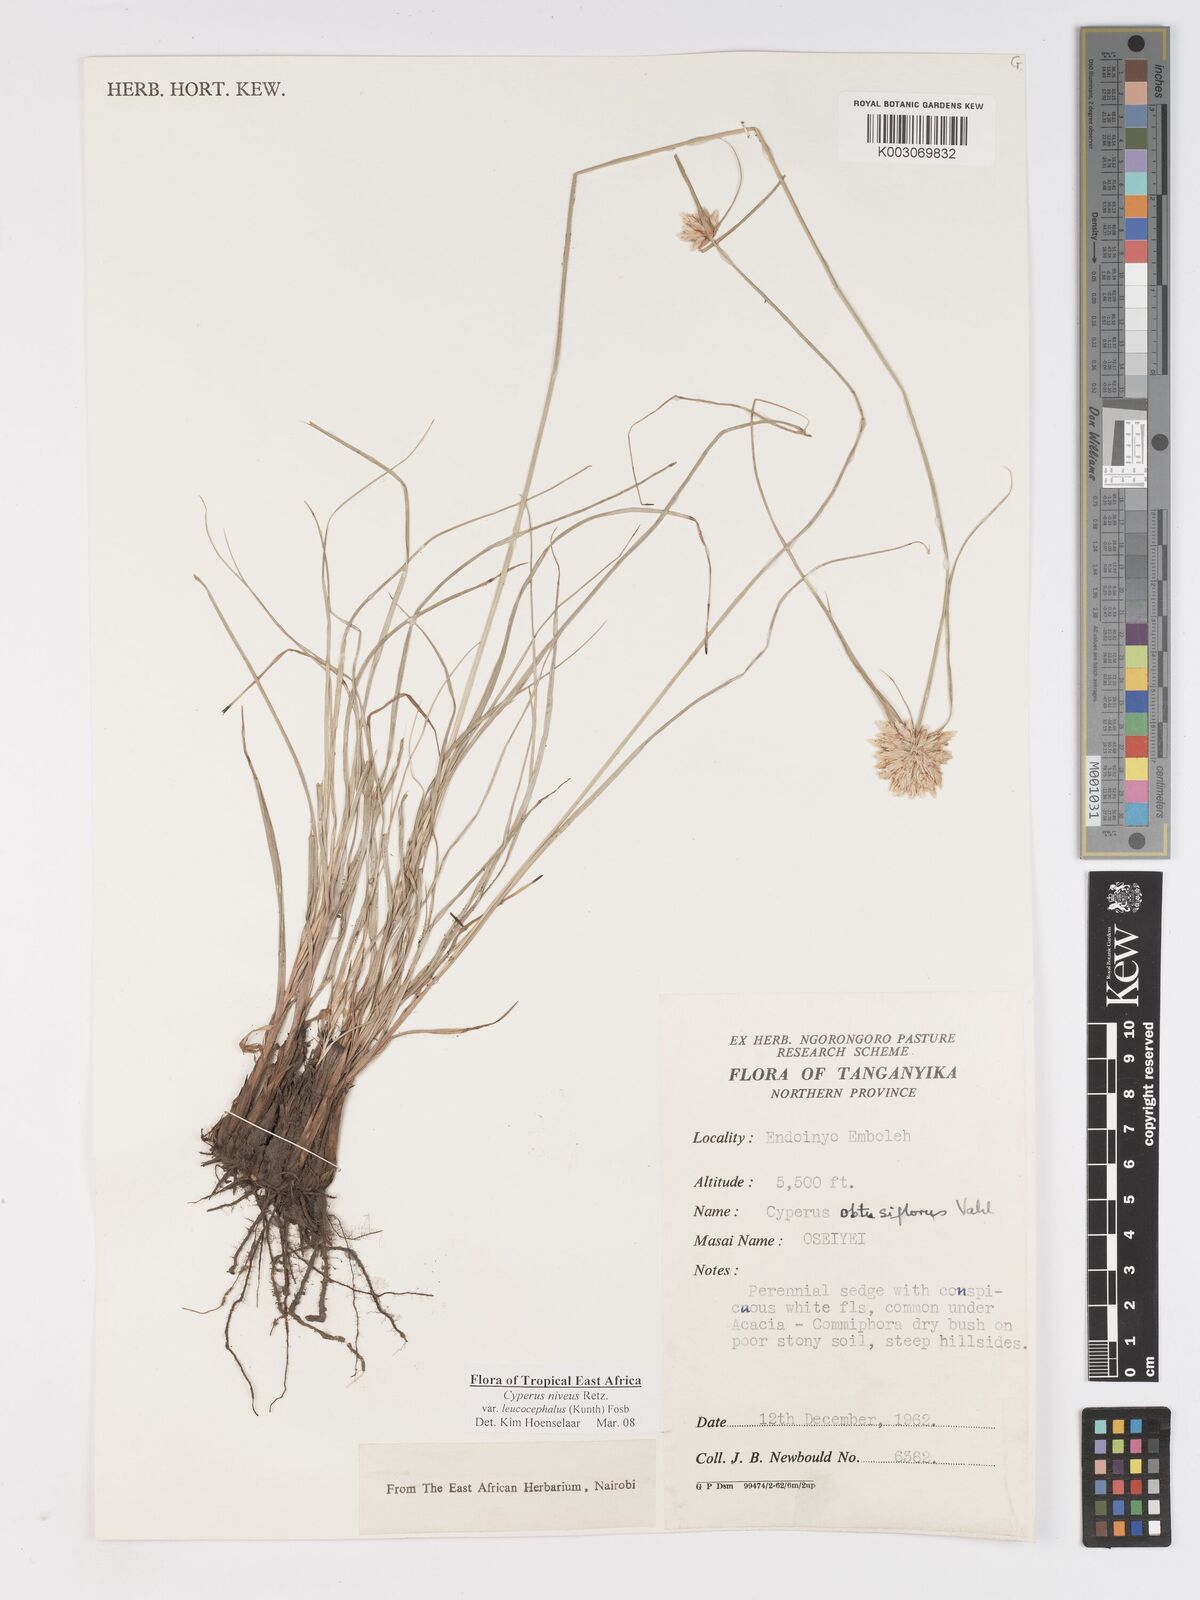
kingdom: Plantae
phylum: Tracheophyta
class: Liliopsida
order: Poales
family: Cyperaceae
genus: Cyperus
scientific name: Cyperus niveus
